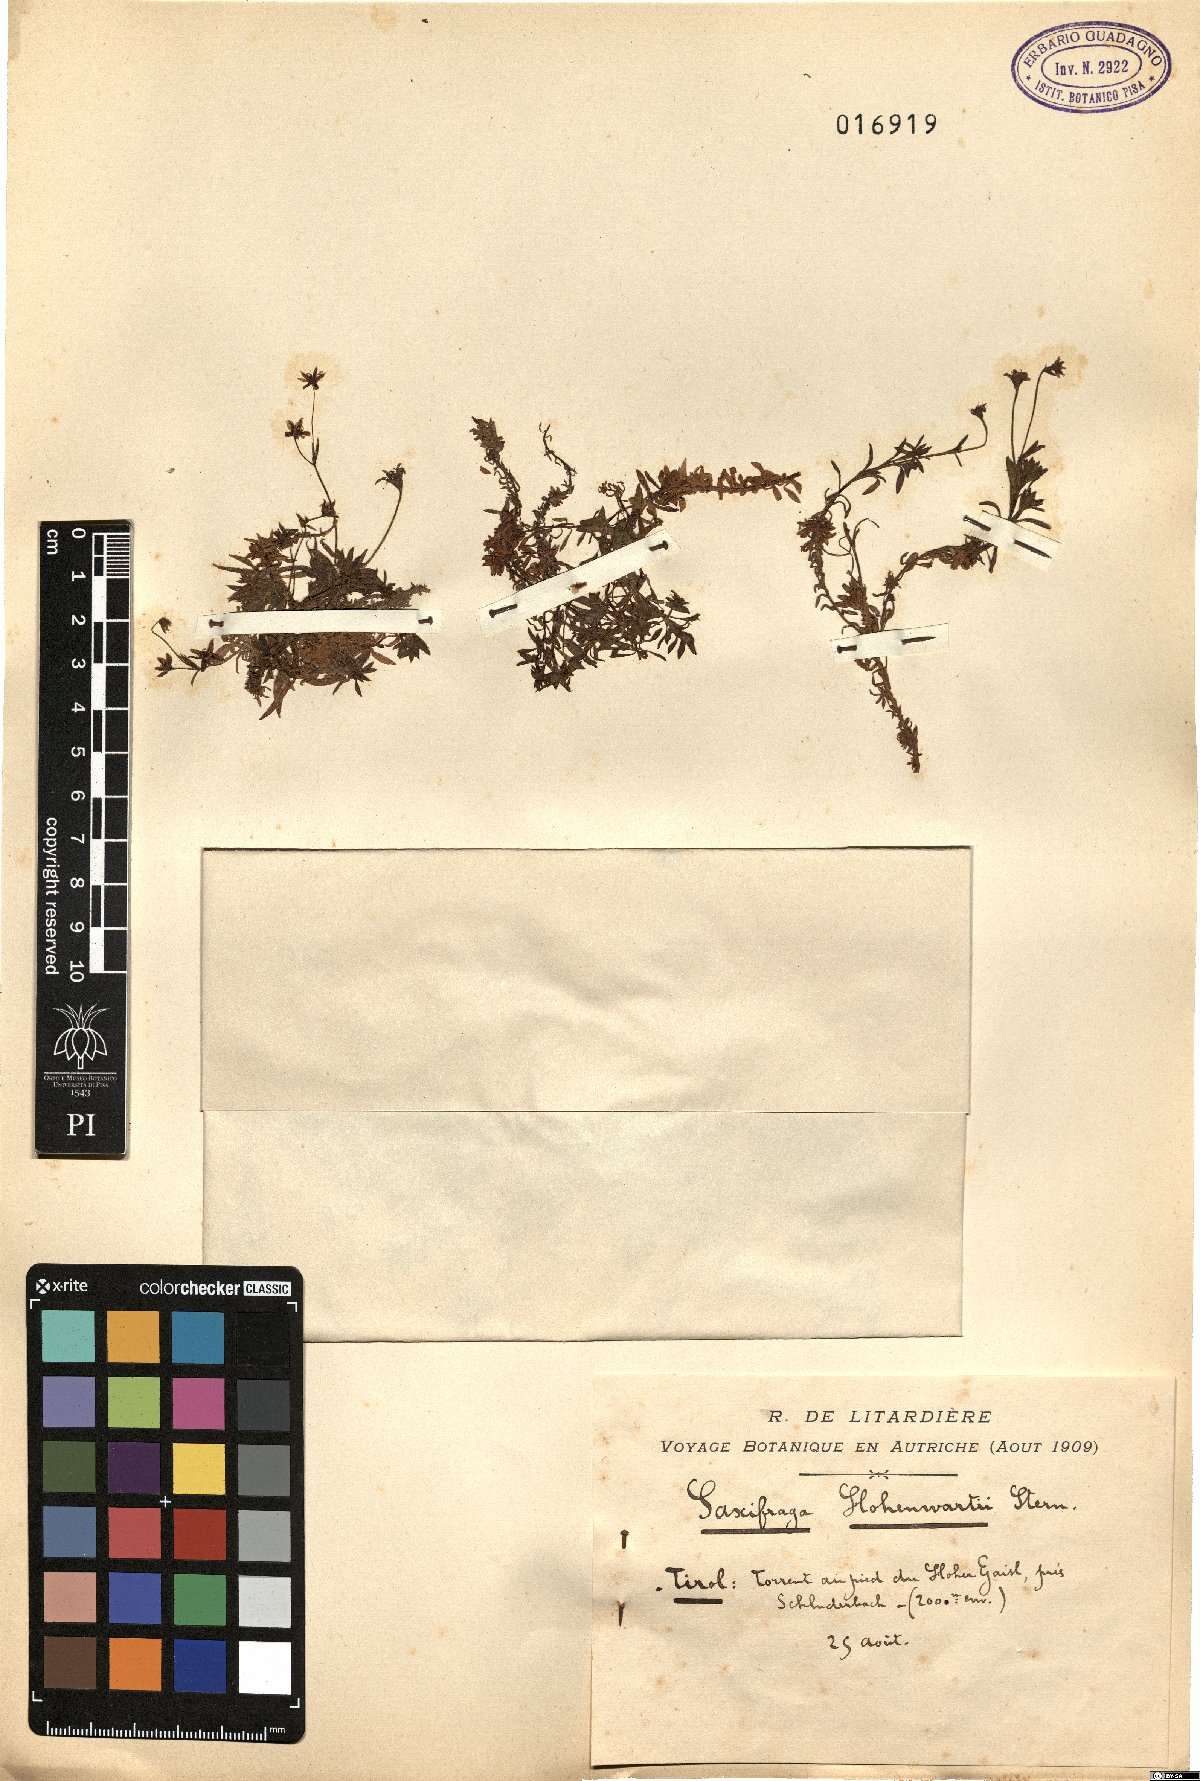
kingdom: Plantae
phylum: Tracheophyta
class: Magnoliopsida
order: Saxifragales
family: Saxifragaceae
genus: Saxifraga
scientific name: Saxifraga hohenwartii
